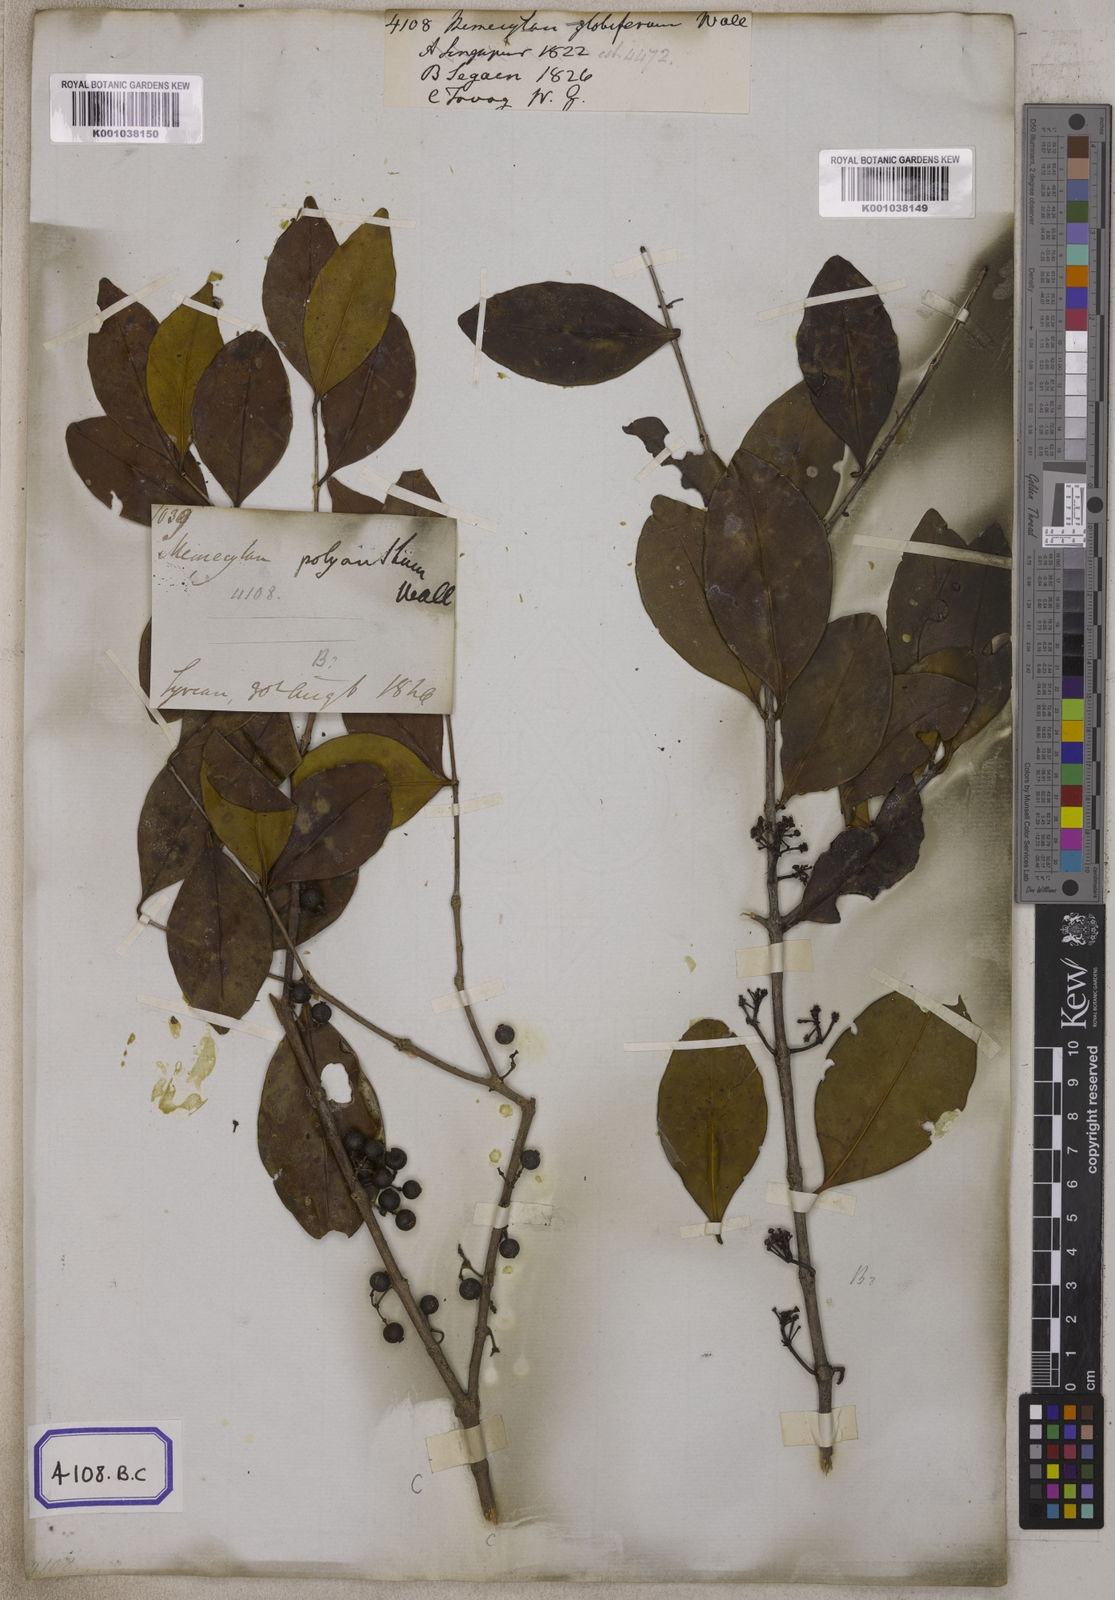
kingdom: Plantae
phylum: Tracheophyta
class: Magnoliopsida
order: Myrtales
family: Melastomataceae
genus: Memecylon
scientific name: Memecylon edule
